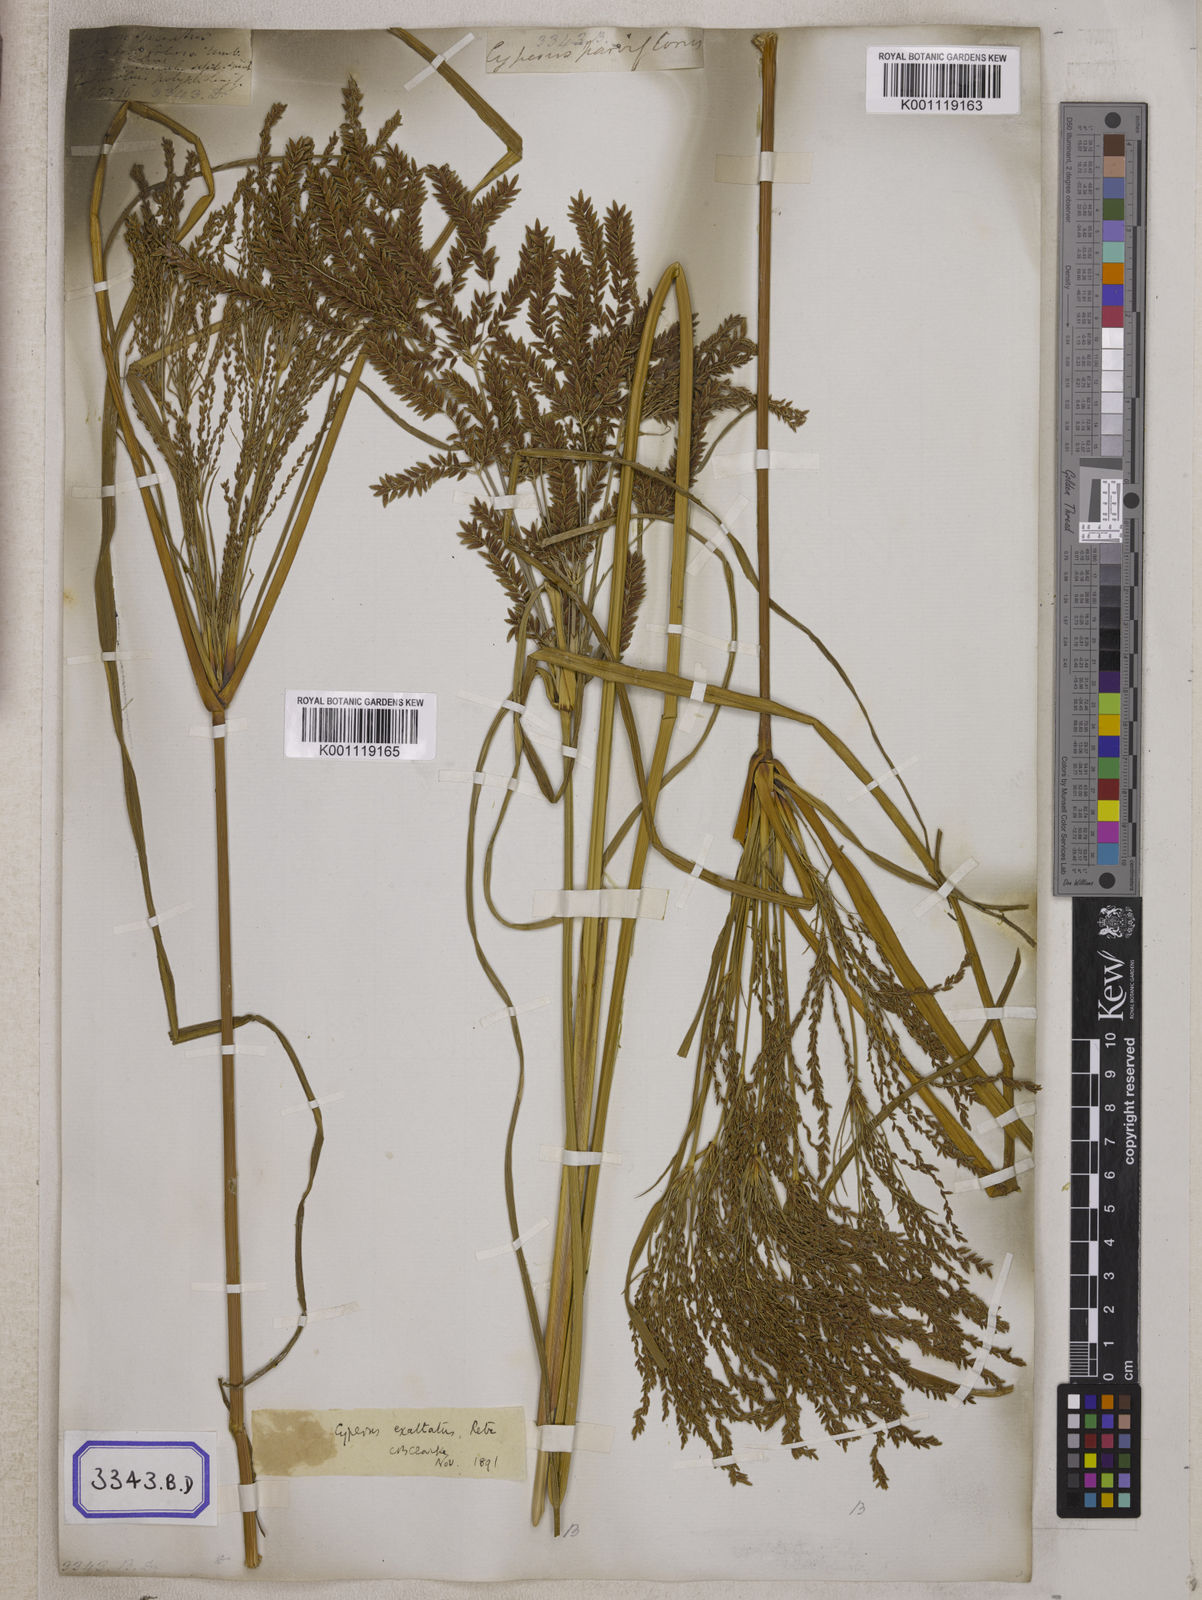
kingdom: Plantae
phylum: Tracheophyta
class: Liliopsida
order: Poales
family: Cyperaceae
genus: Cyperus
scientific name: Cyperus
